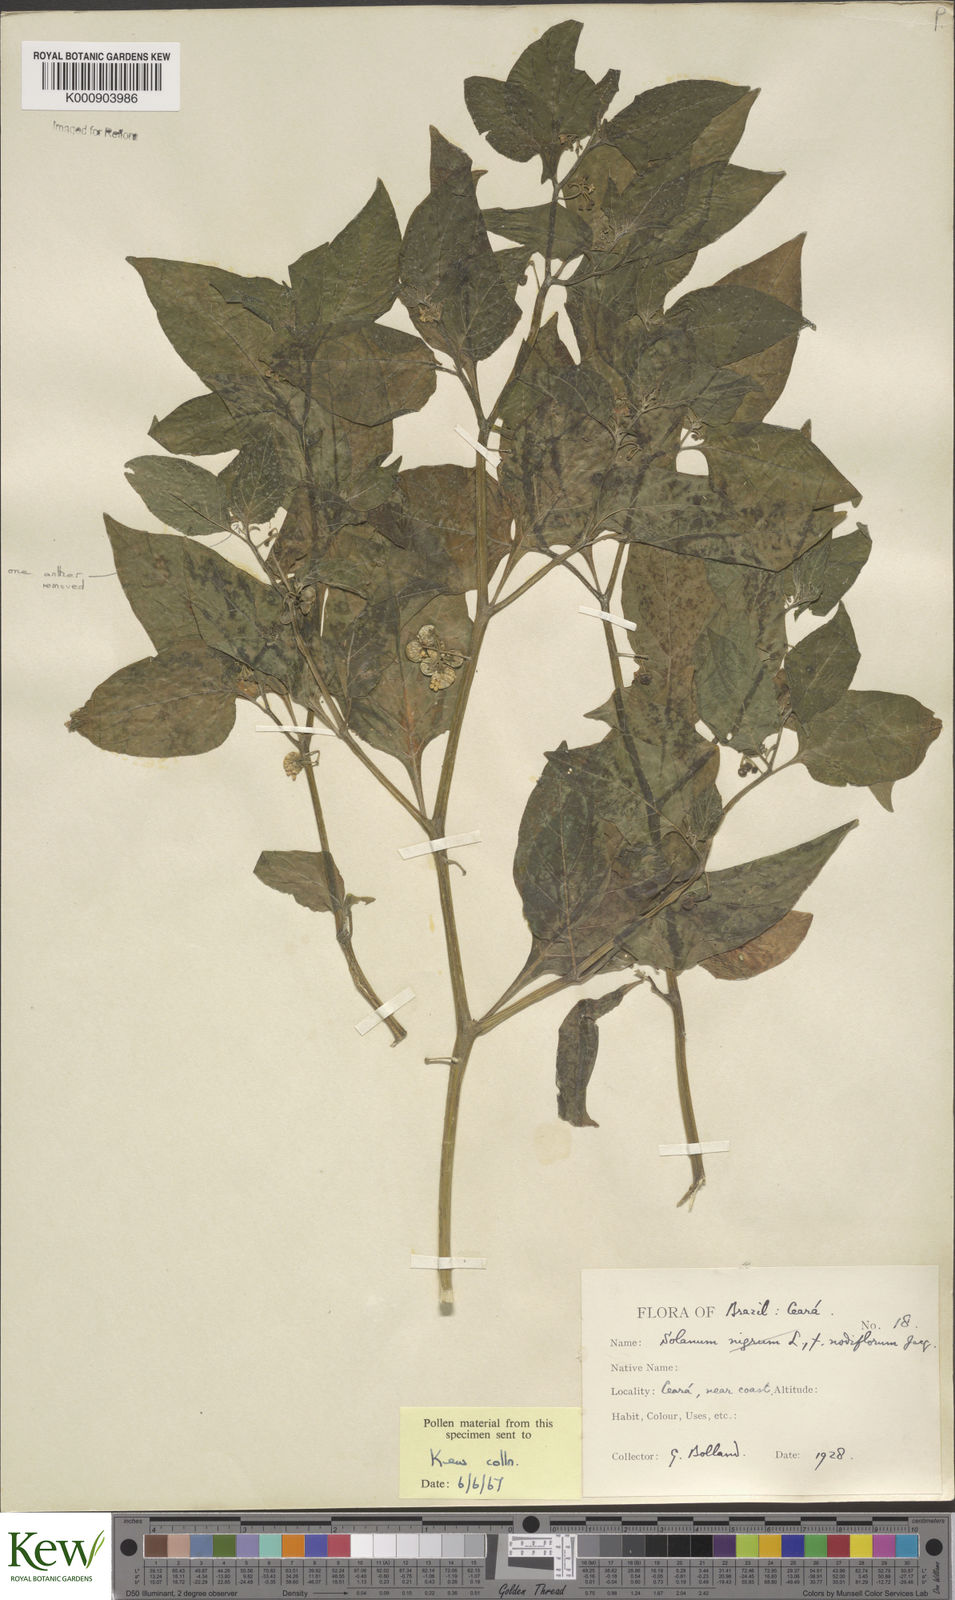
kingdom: Plantae
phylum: Tracheophyta
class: Magnoliopsida
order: Solanales
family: Solanaceae
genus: Solanum
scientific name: Solanum americanum
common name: American black nightshade
